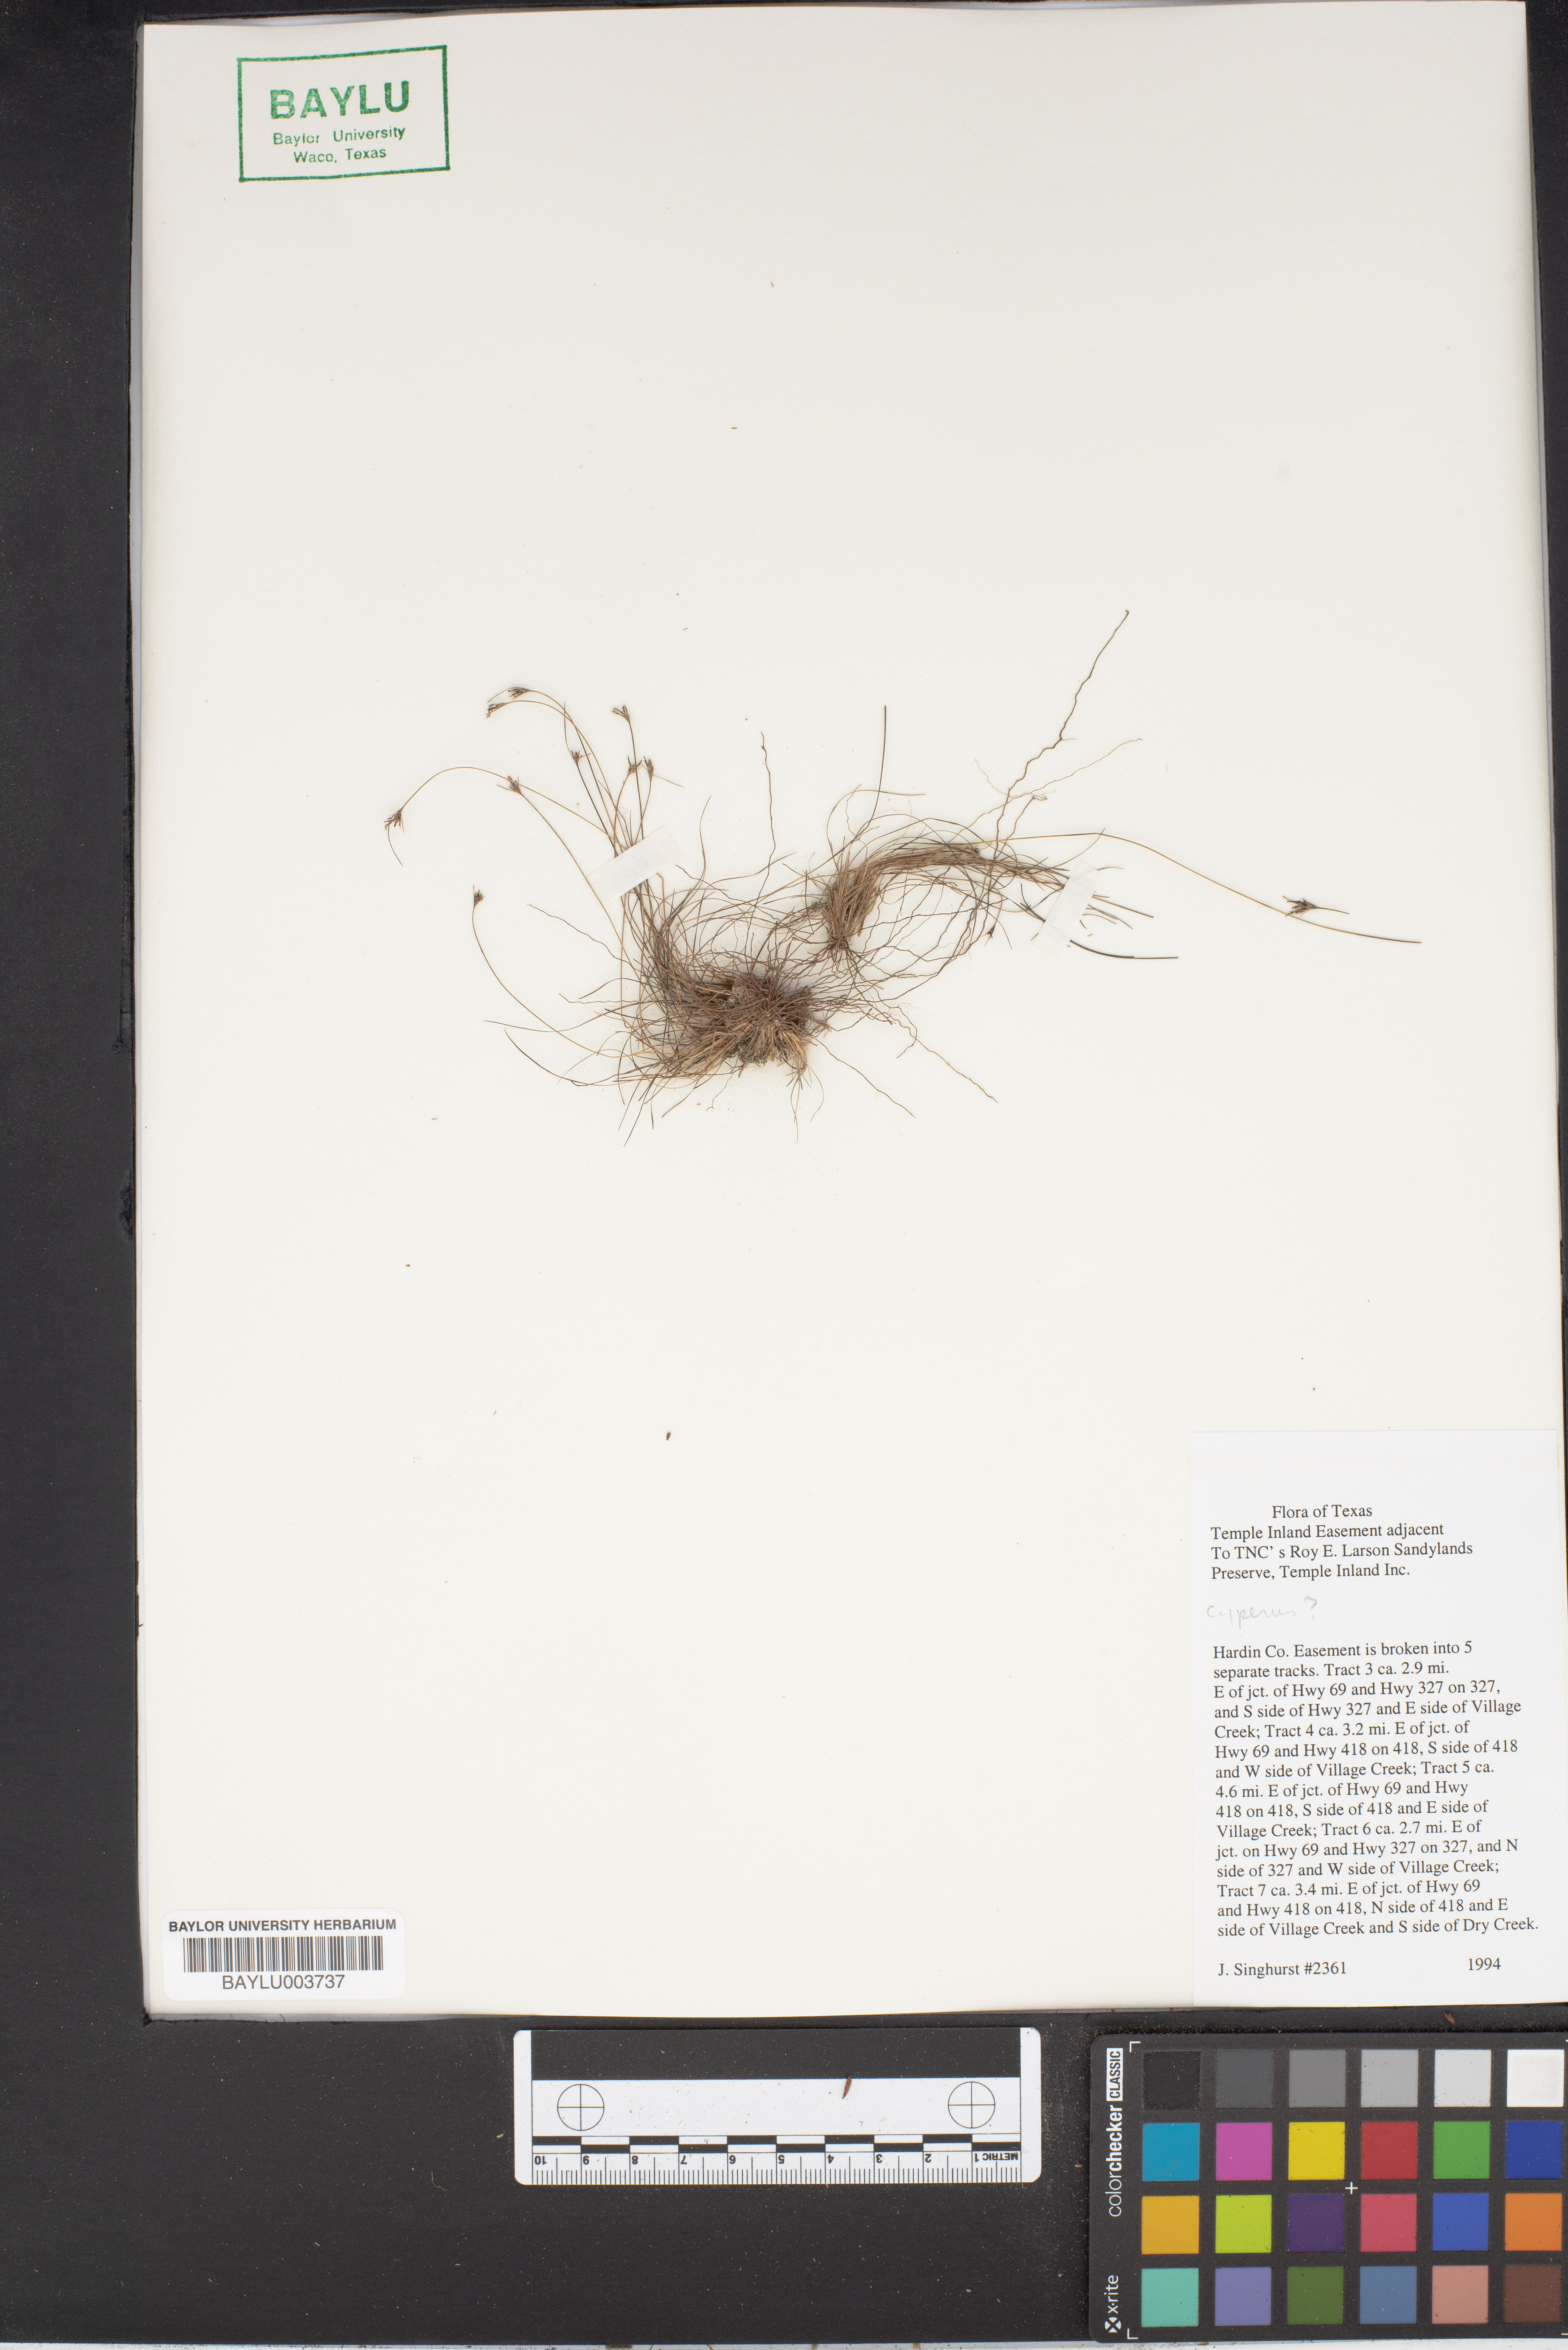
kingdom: Plantae
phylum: Tracheophyta
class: Liliopsida
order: Poales
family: Cyperaceae
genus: Cyperus
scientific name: Cyperus
